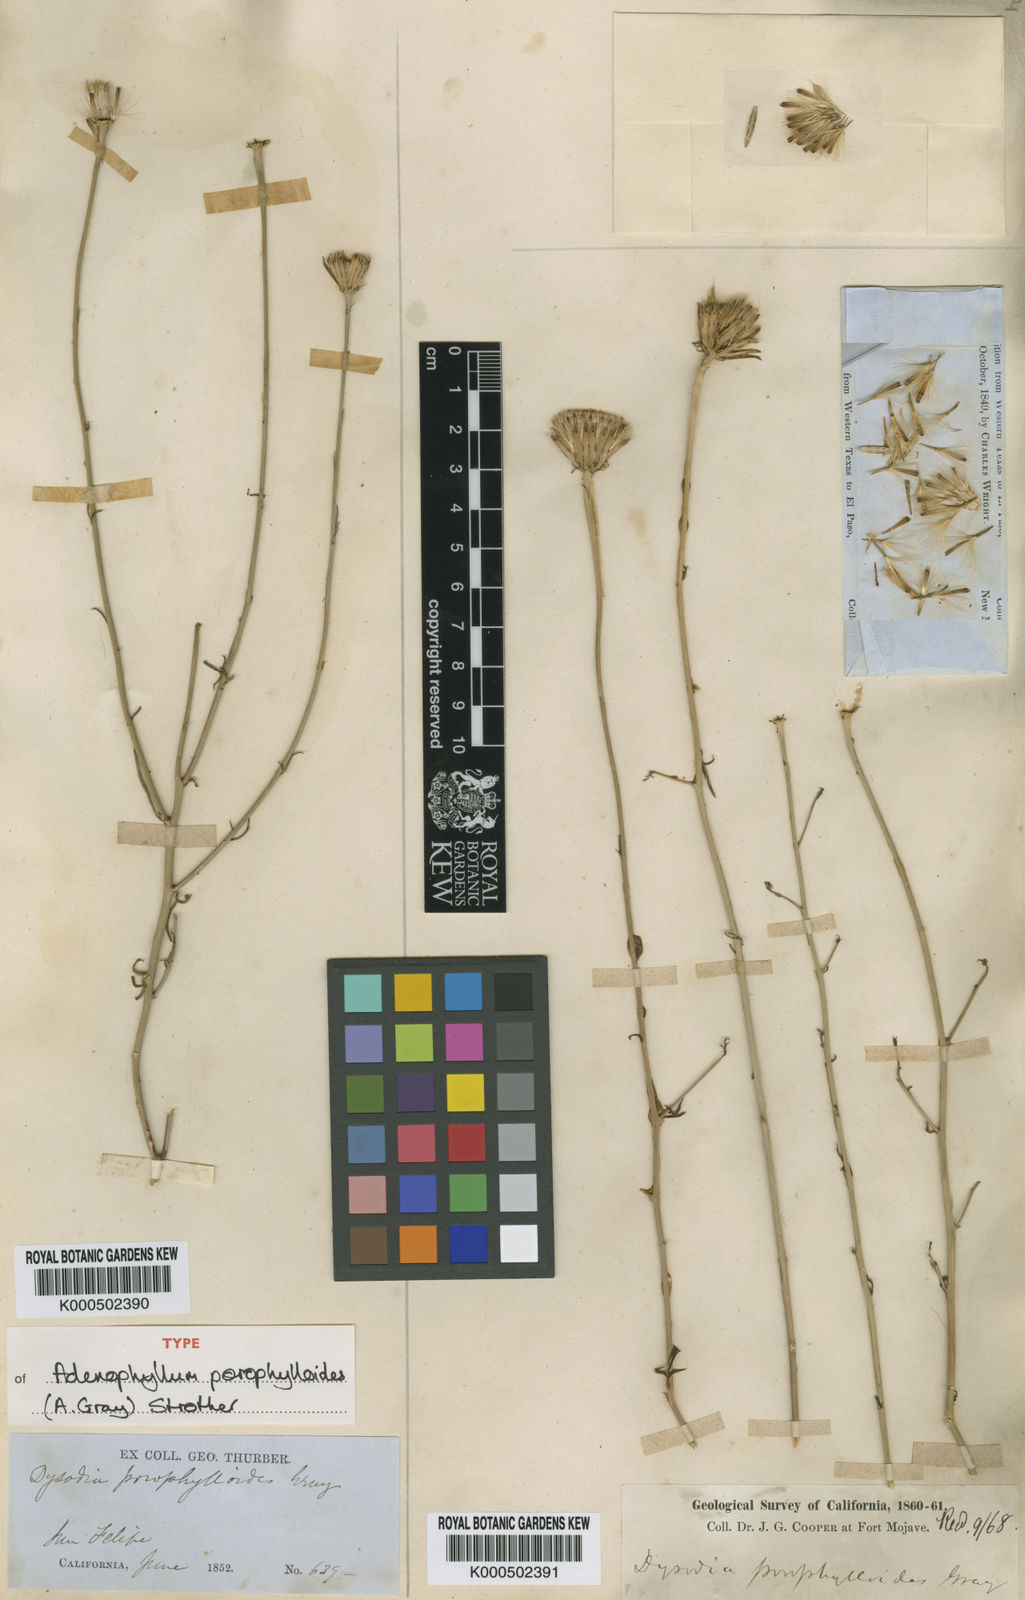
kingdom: Plantae
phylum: Tracheophyta
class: Magnoliopsida
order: Asterales
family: Asteraceae
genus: Adenophyllum
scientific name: Adenophyllum porophylloides
